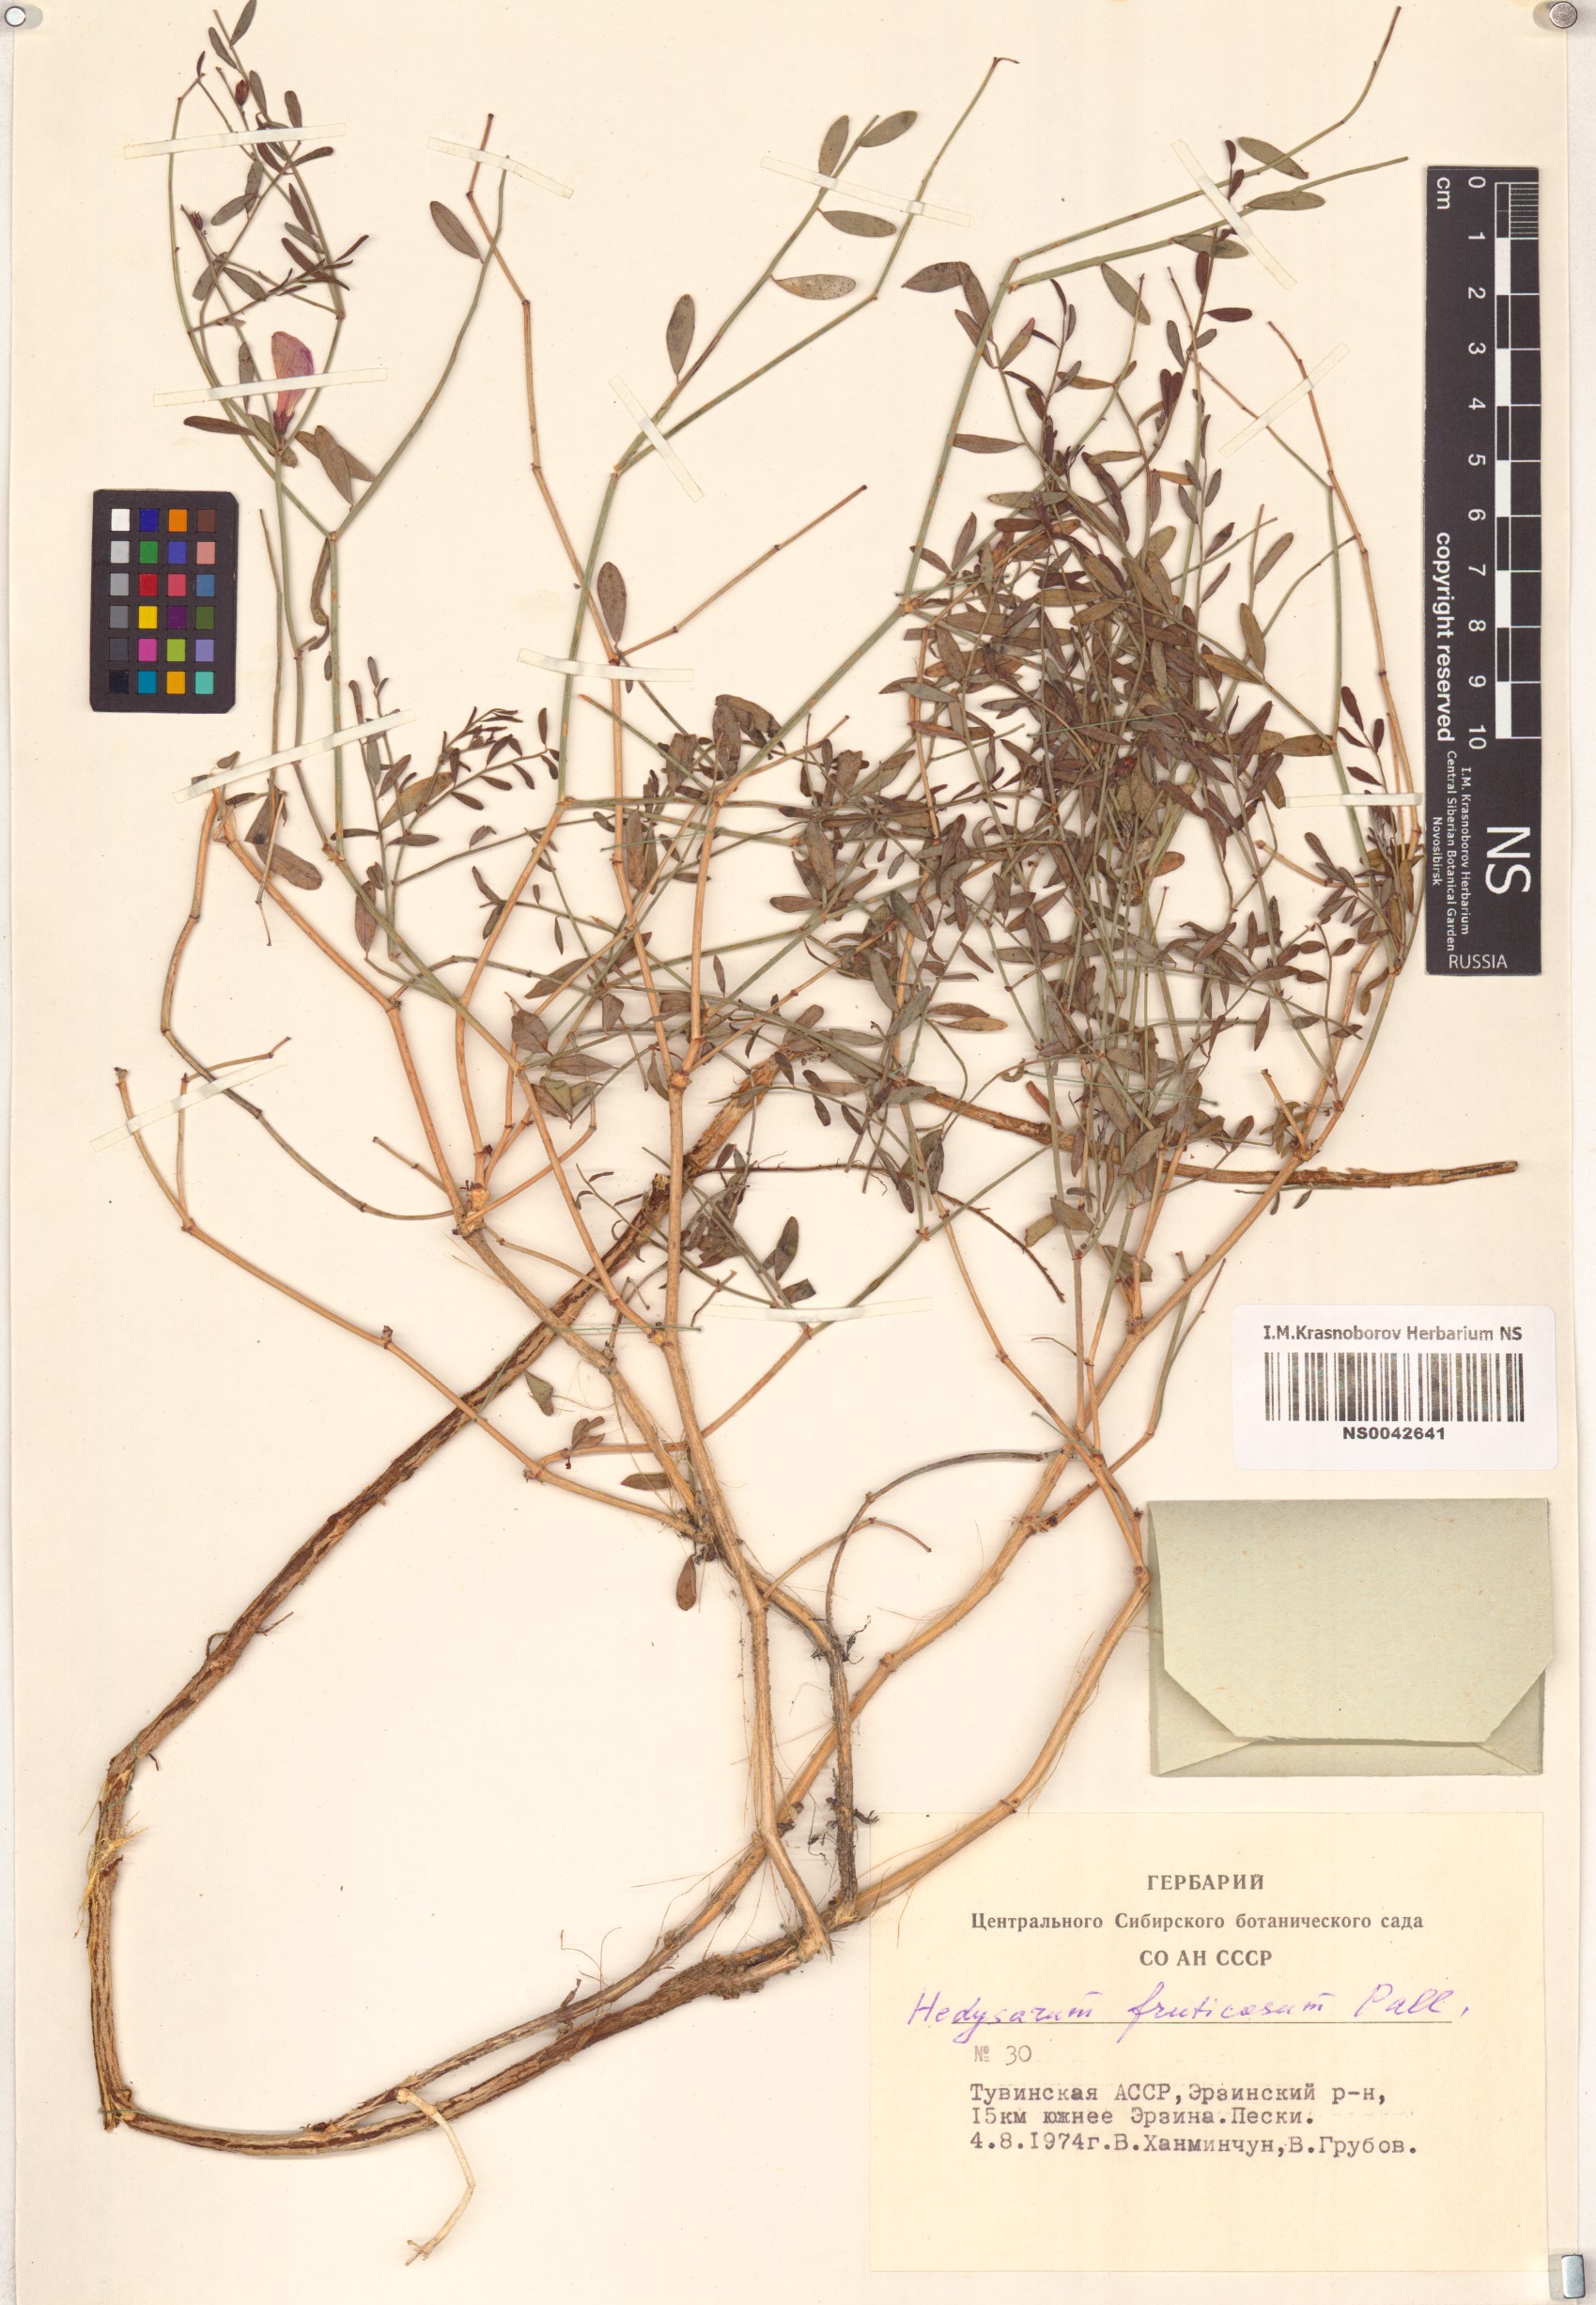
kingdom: Plantae
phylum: Tracheophyta
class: Magnoliopsida
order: Fabales
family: Fabaceae
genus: Corethrodendron
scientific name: Corethrodendron fruticosum
